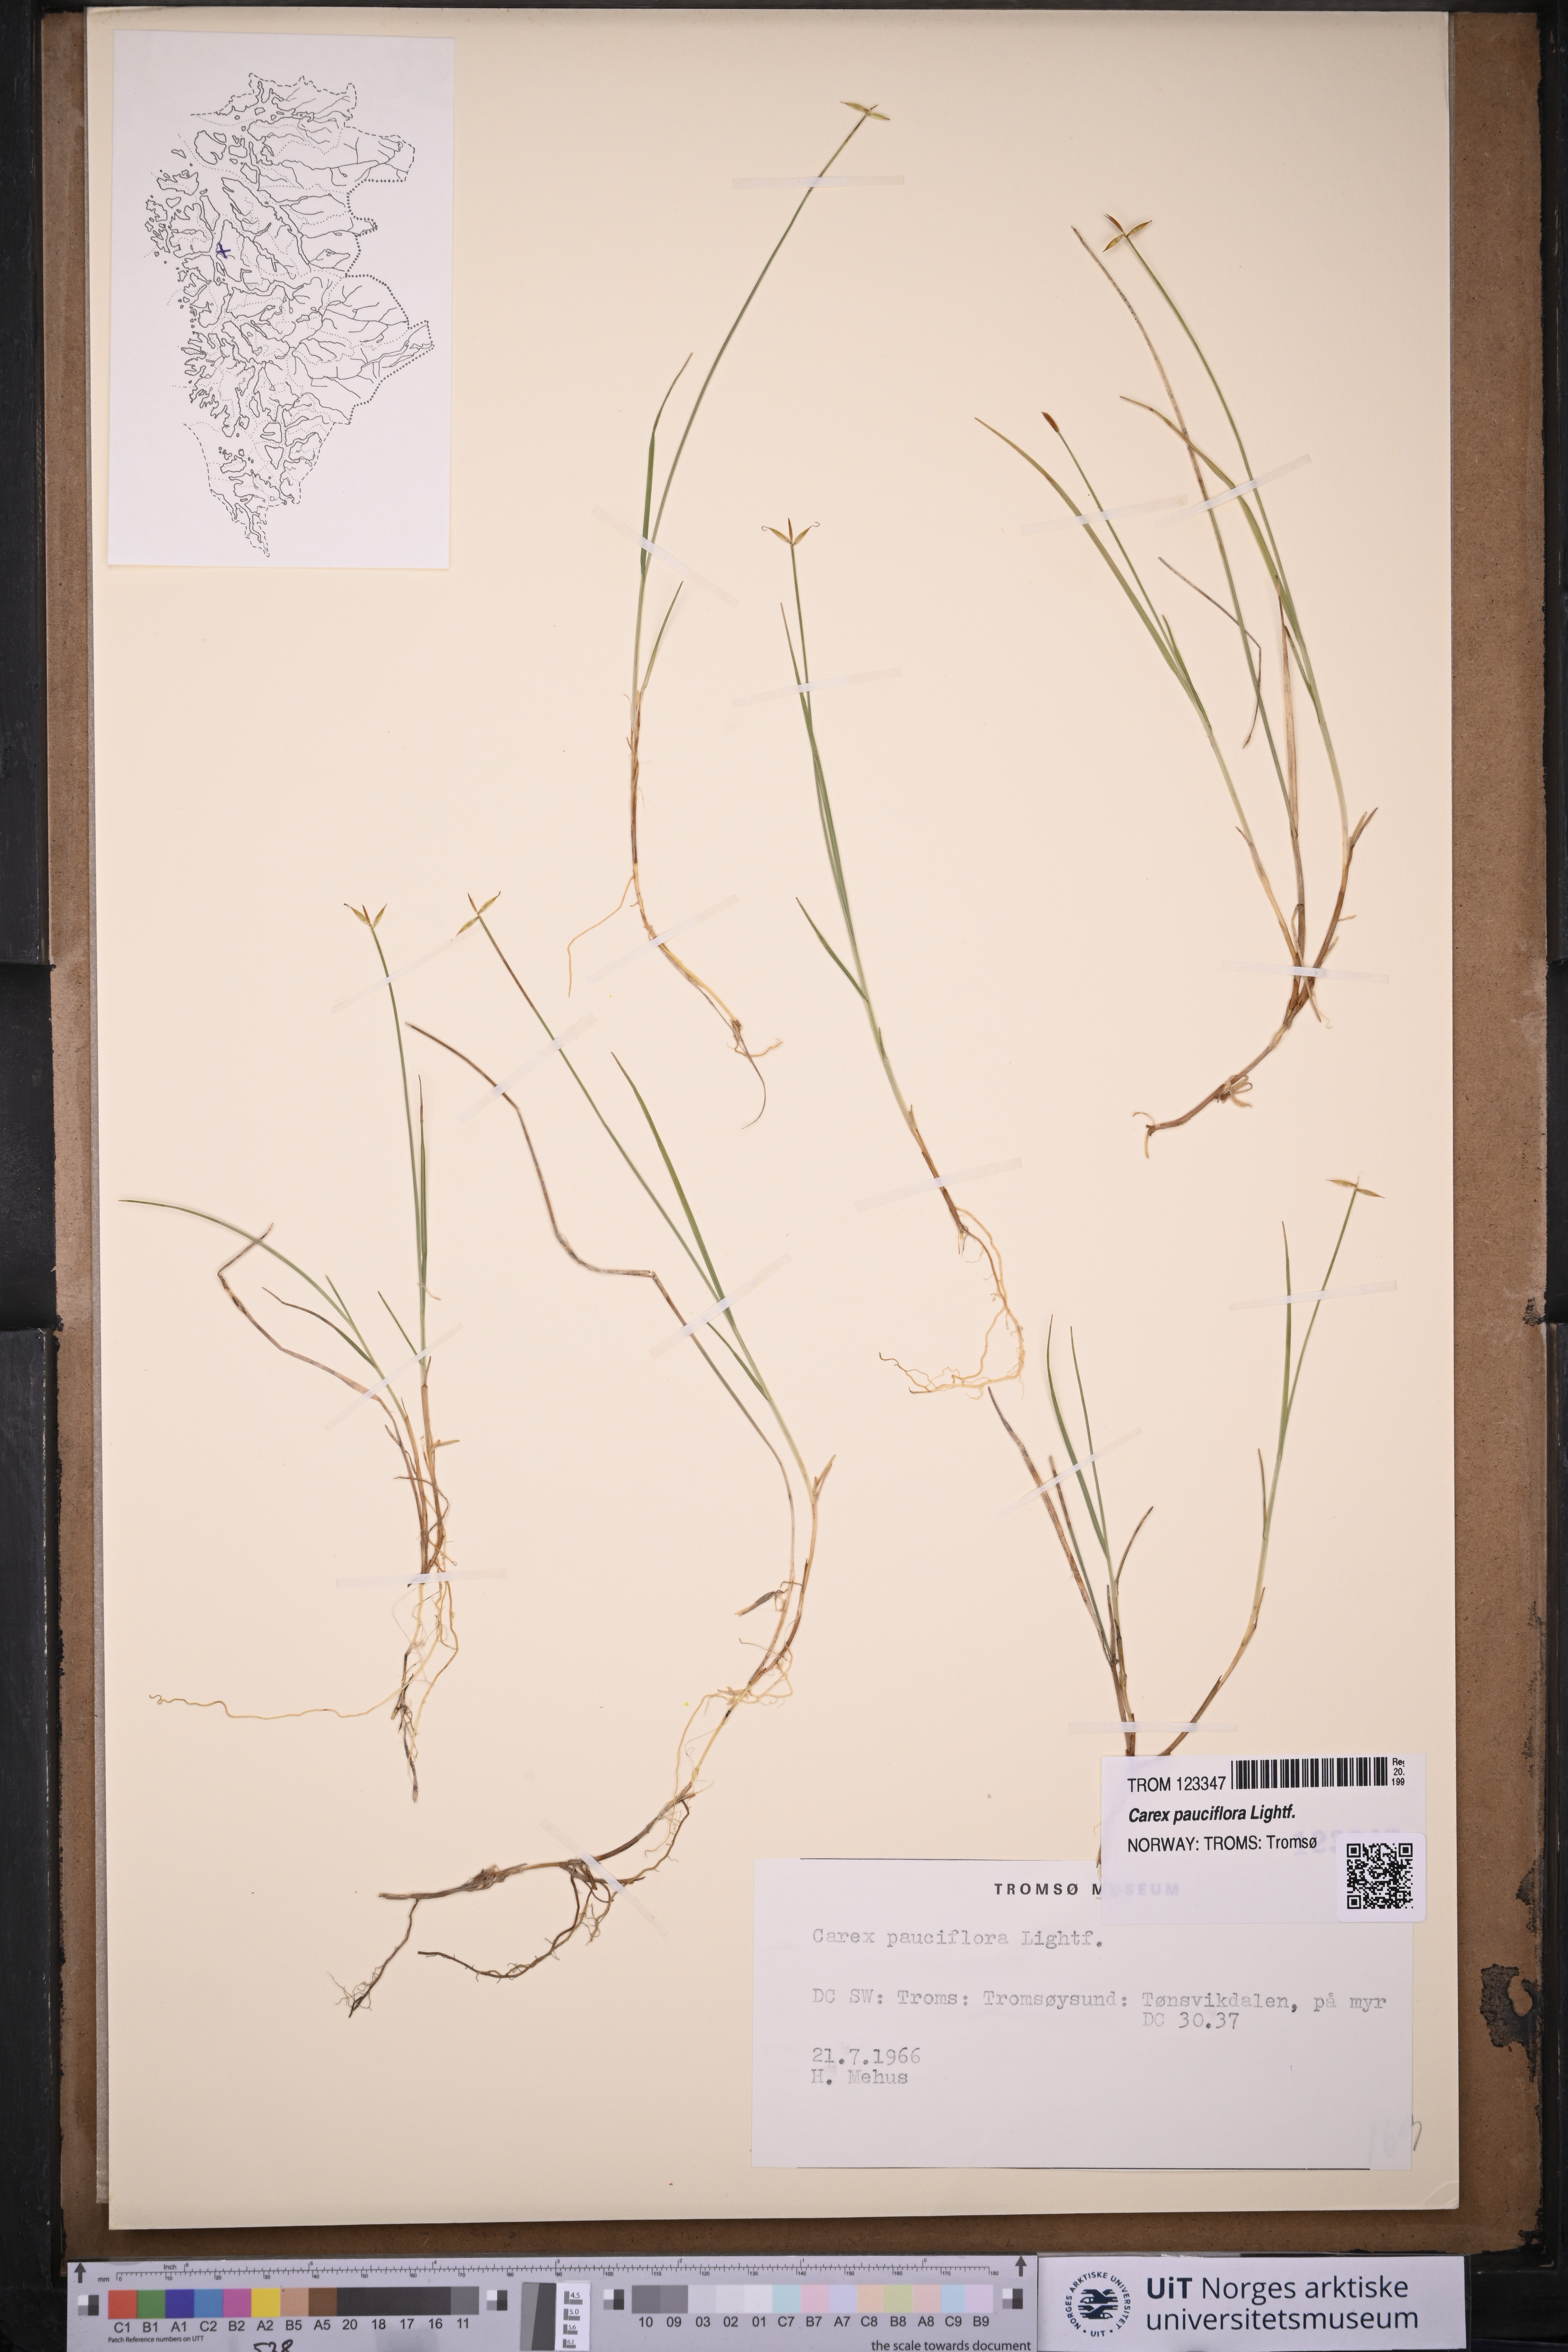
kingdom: Plantae
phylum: Tracheophyta
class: Liliopsida
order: Poales
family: Cyperaceae
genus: Carex
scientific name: Carex pauciflora
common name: Few-flowered sedge
